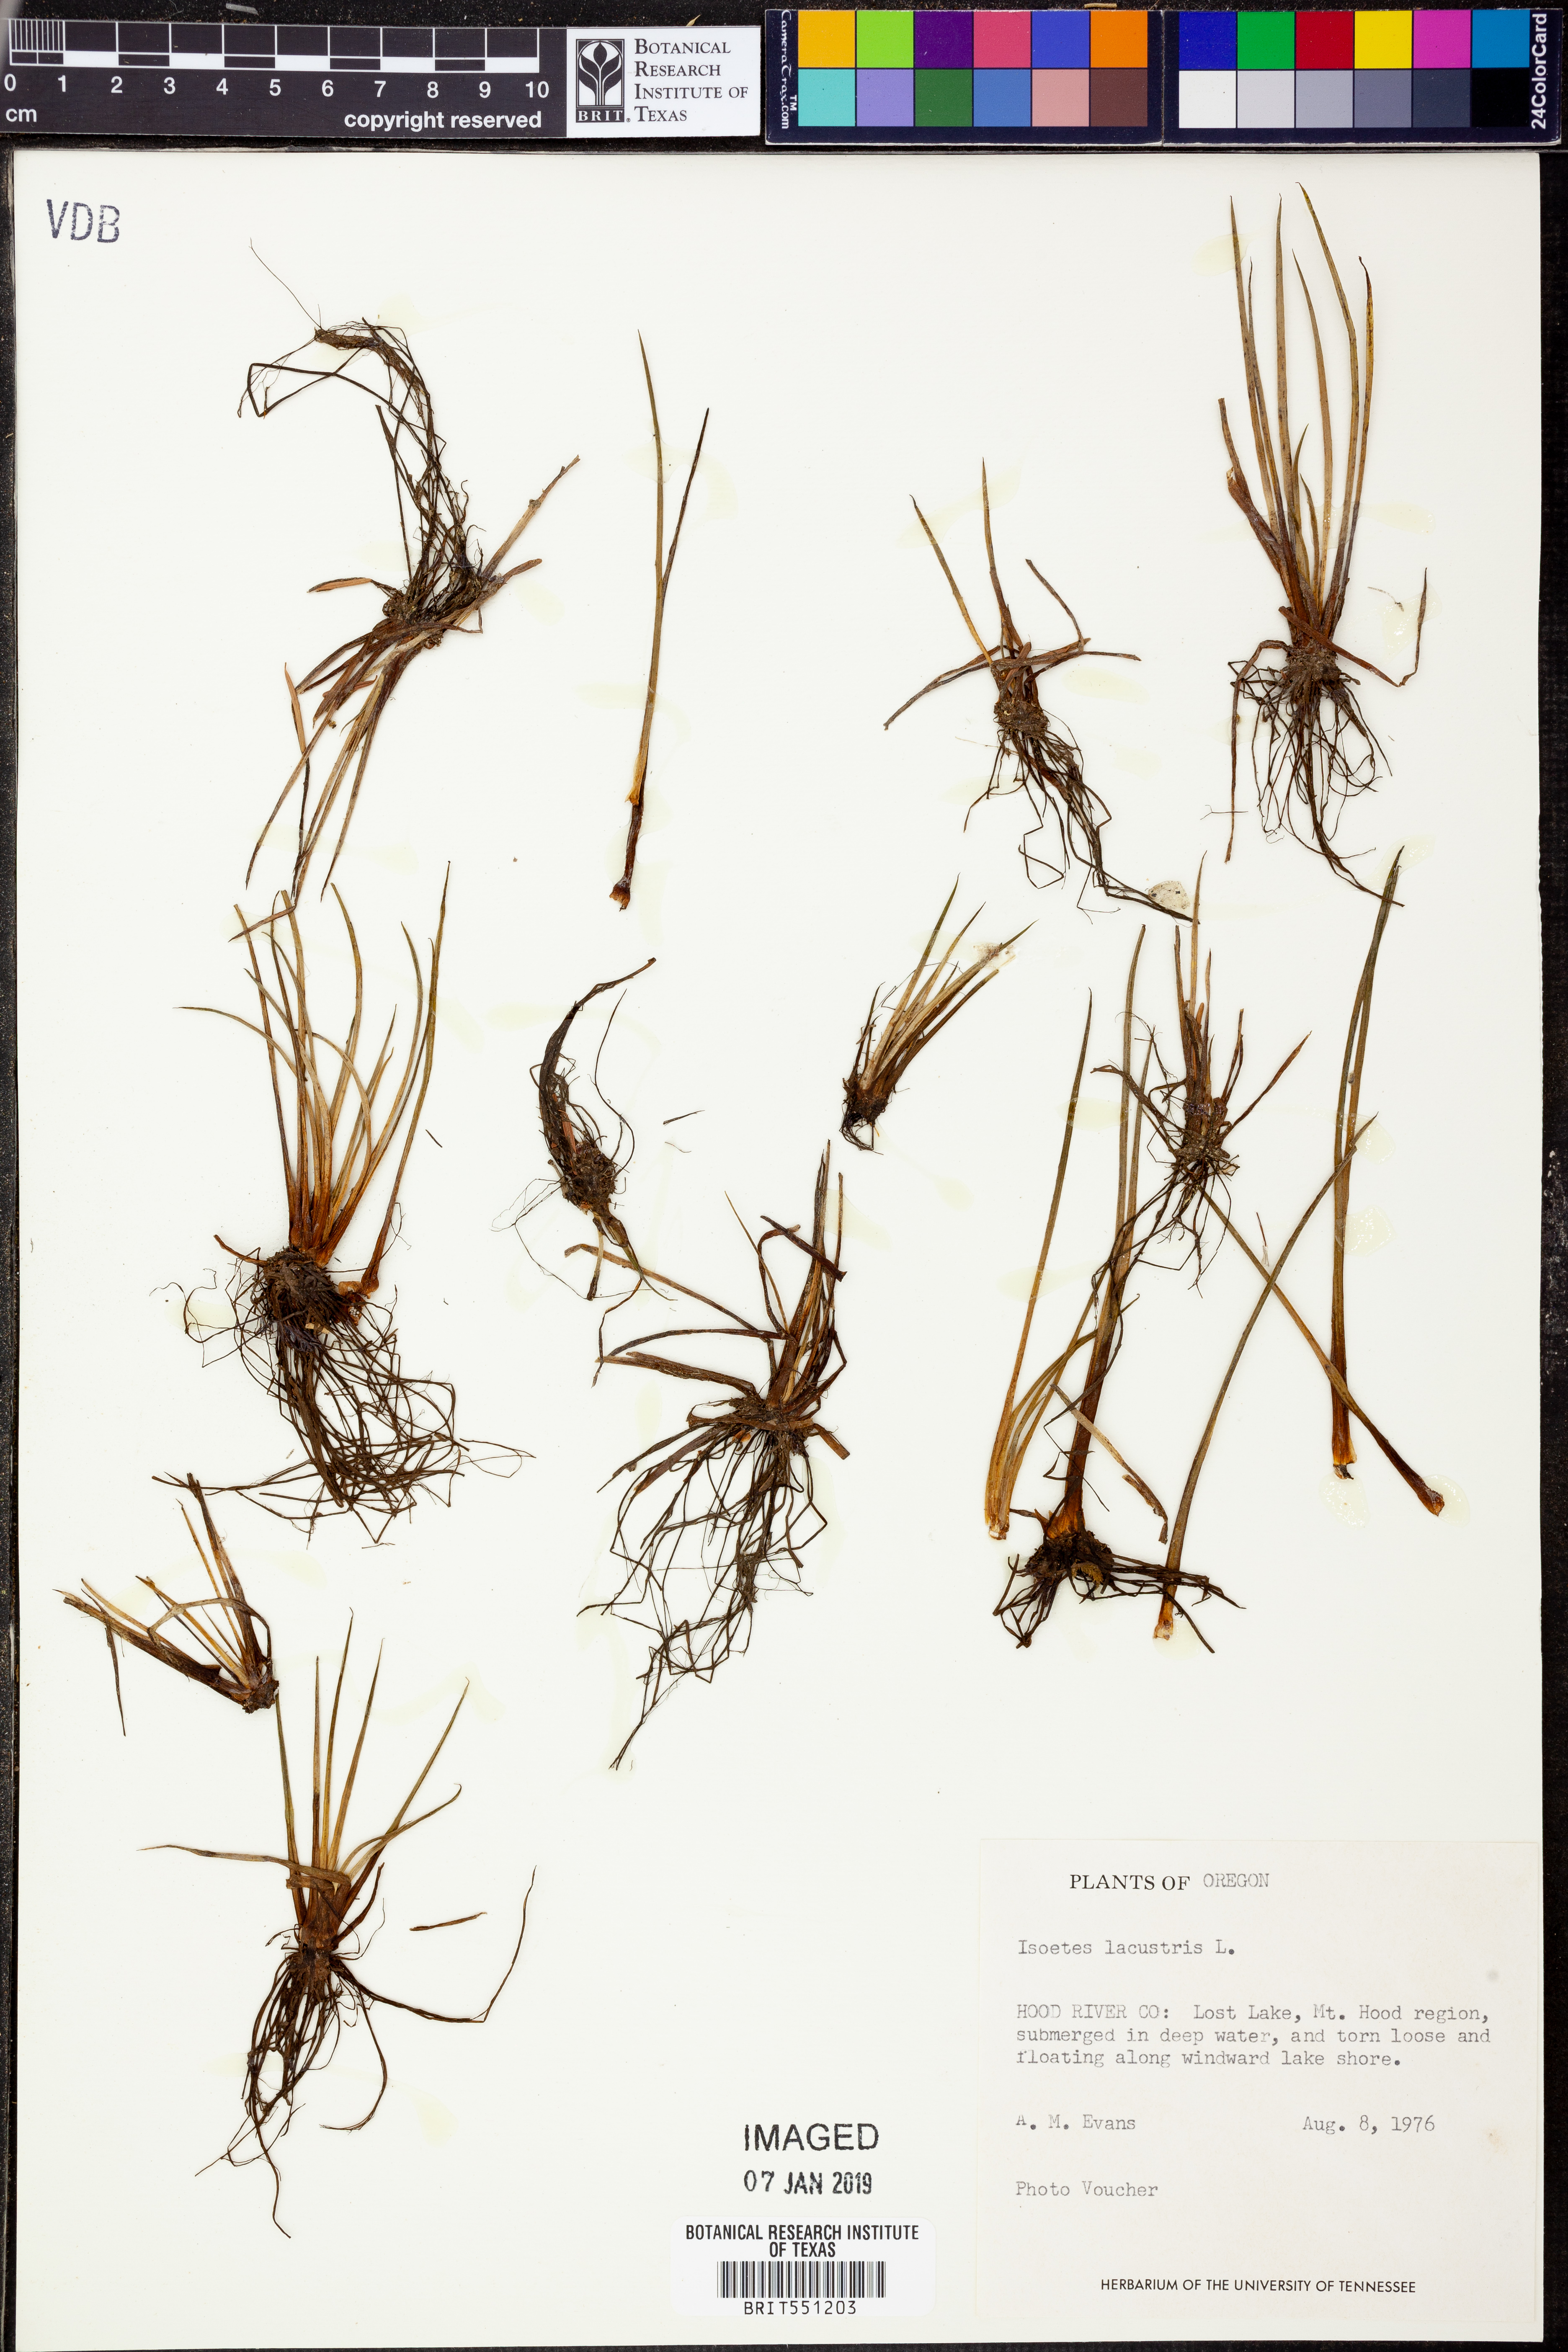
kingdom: Plantae
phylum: Tracheophyta
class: Lycopodiopsida
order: Isoetales
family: Isoetaceae
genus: Isoetes
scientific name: Isoetes lacustris
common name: Common quillwort
